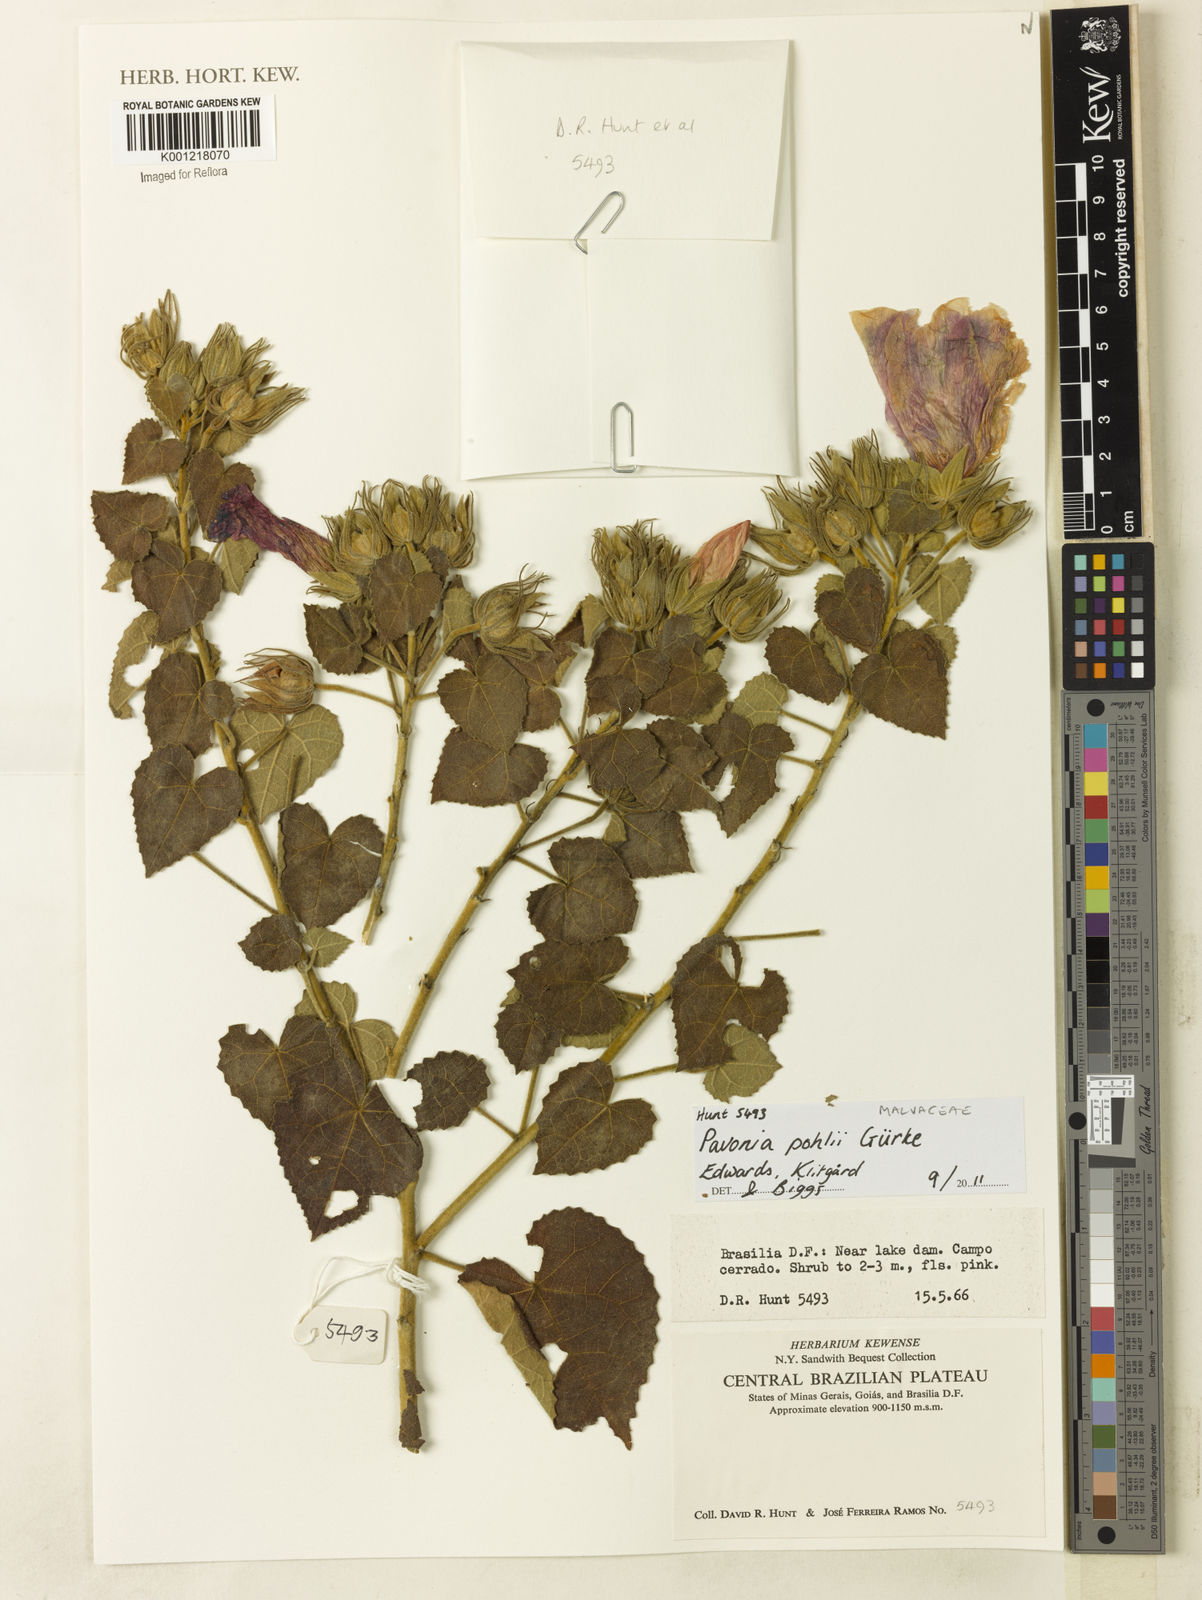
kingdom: Plantae
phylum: Tracheophyta
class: Magnoliopsida
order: Malvales
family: Malvaceae
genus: Pavonia
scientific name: Pavonia
